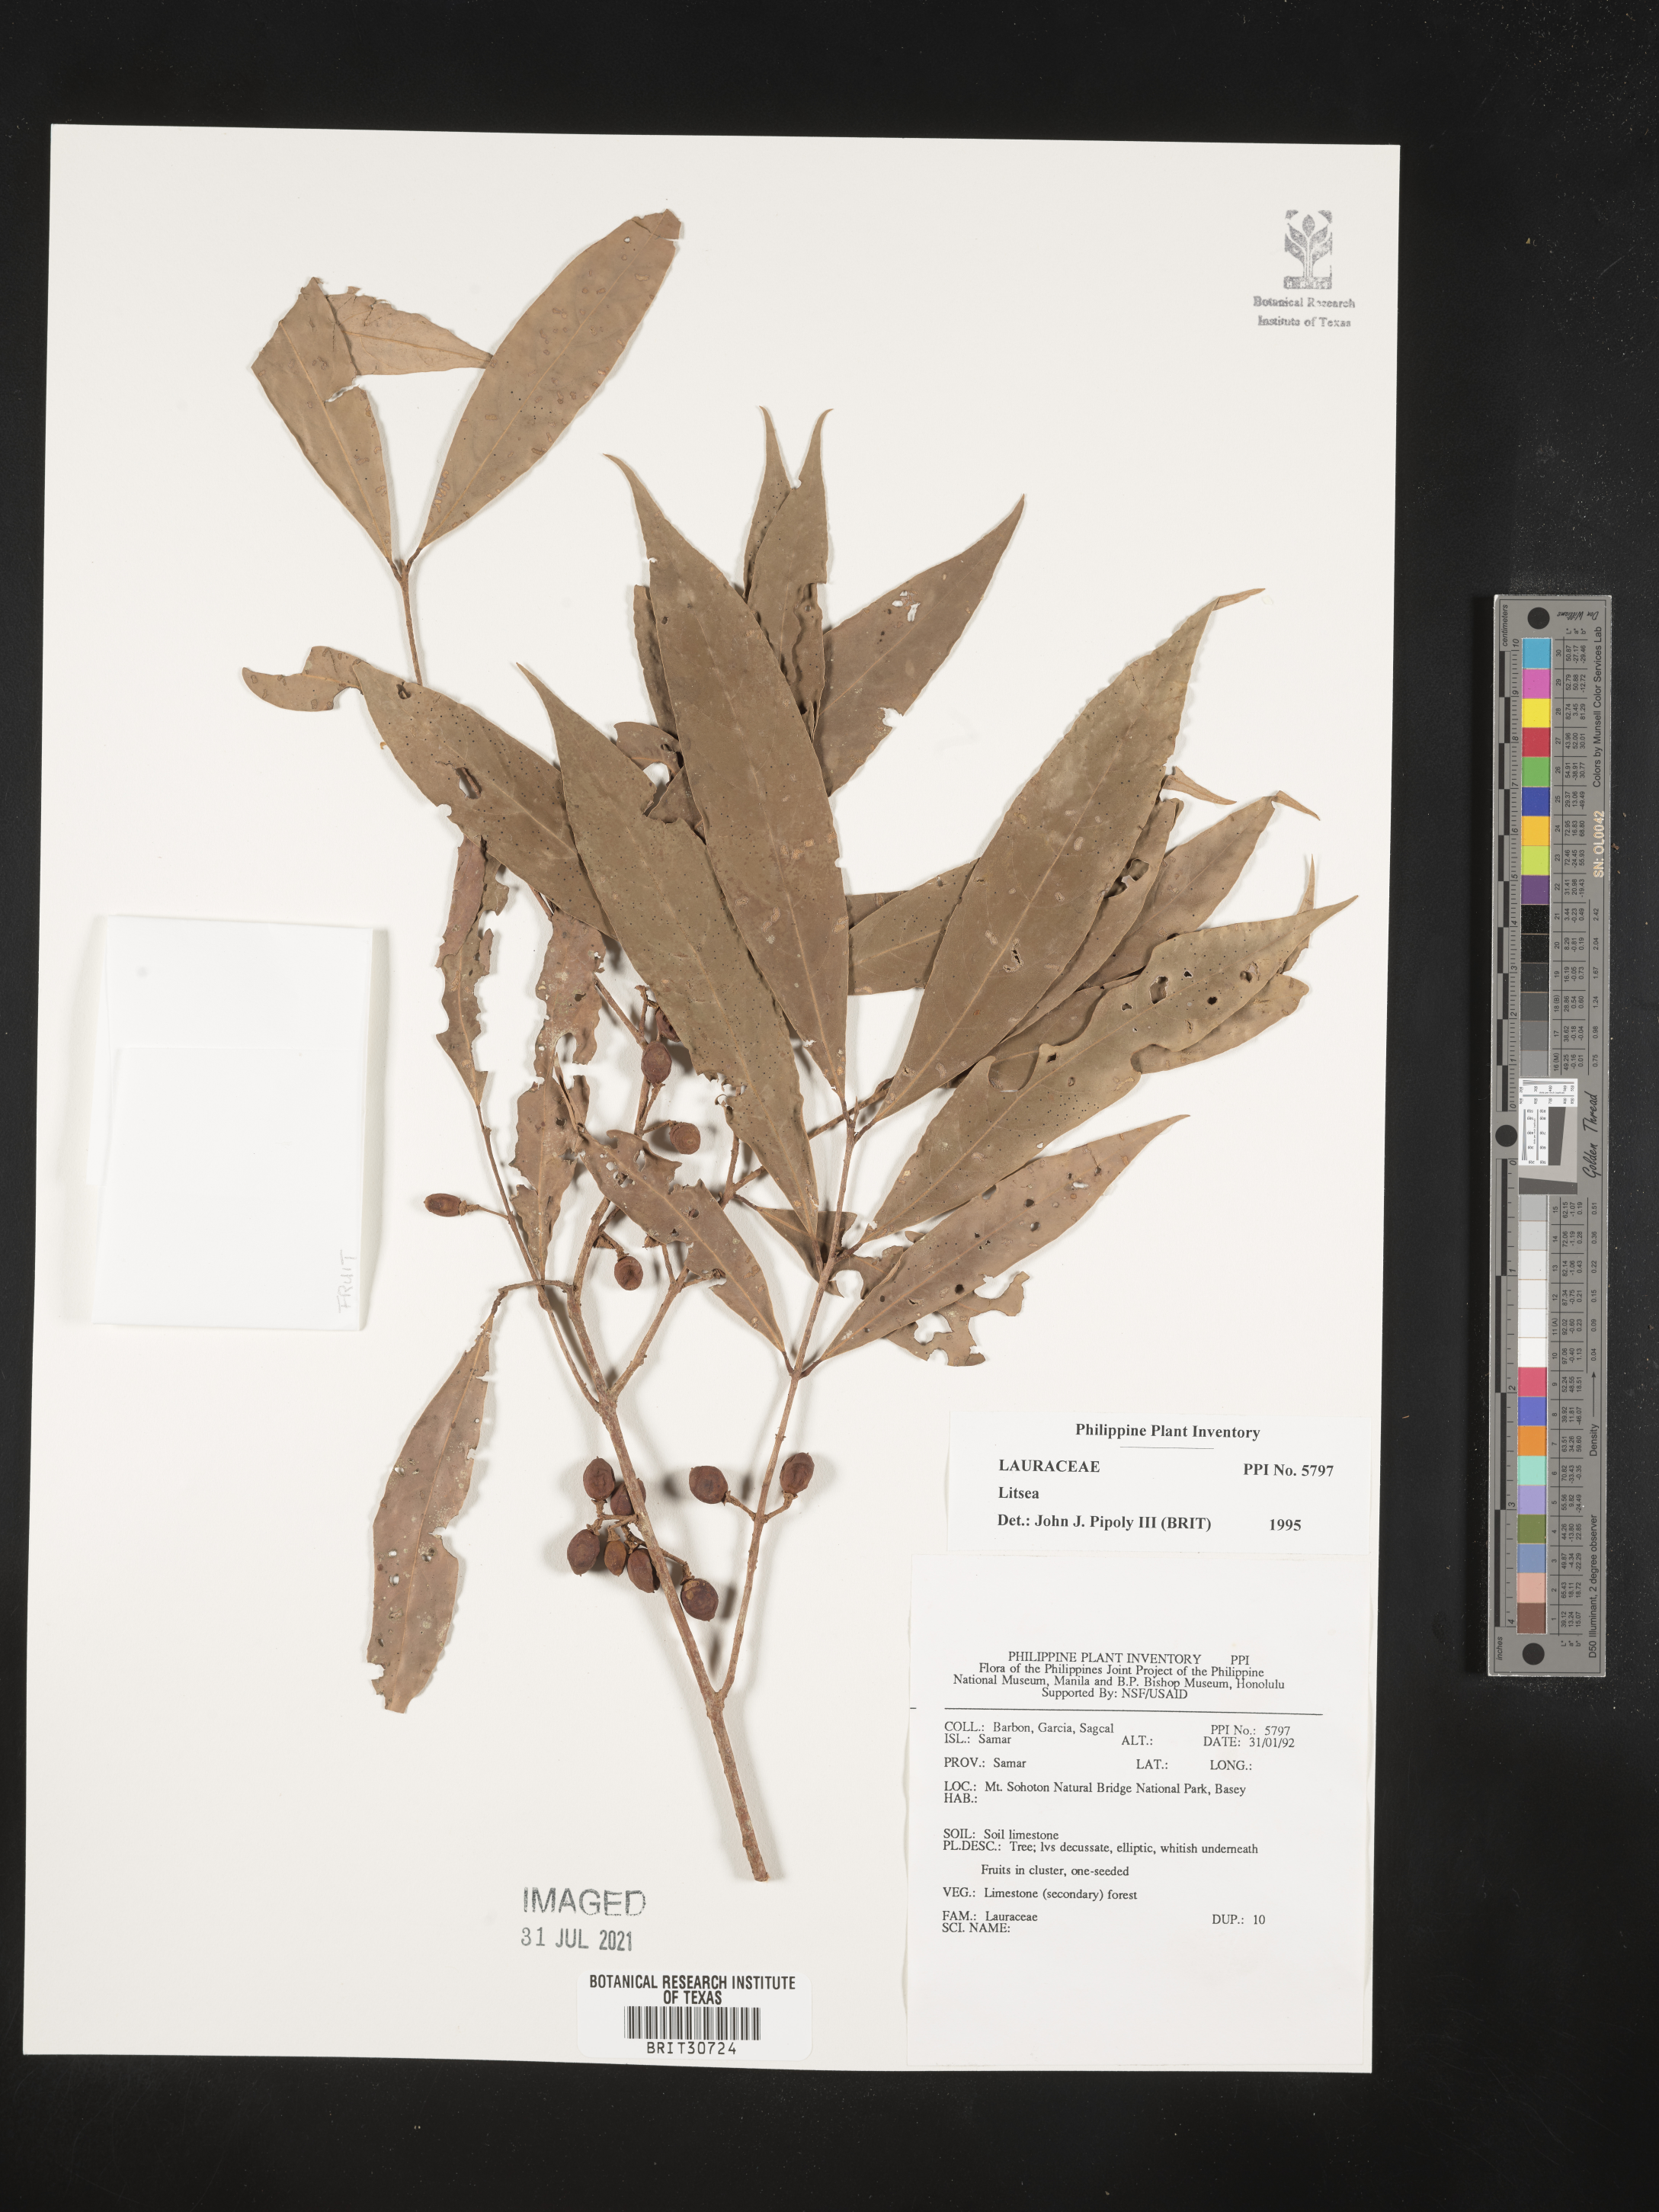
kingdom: Plantae
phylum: Tracheophyta
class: Magnoliopsida
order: Laurales
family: Lauraceae
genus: Litsea
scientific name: Litsea
